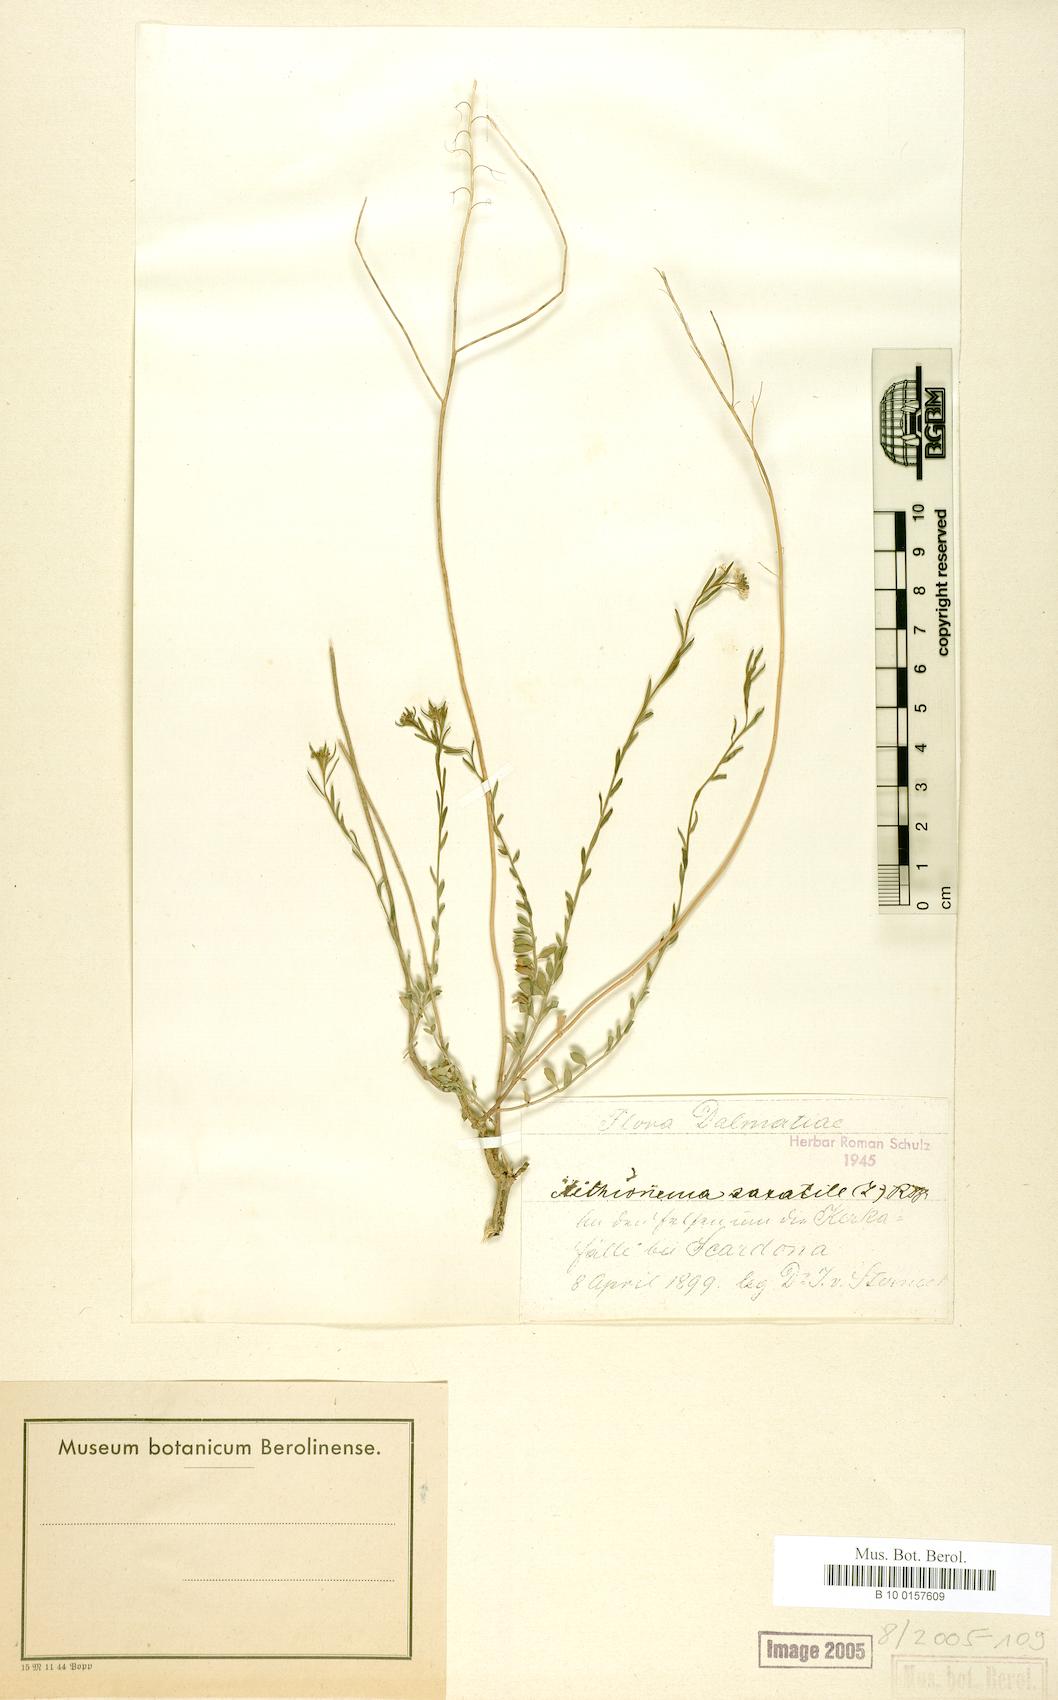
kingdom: Plantae
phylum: Tracheophyta
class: Magnoliopsida
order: Brassicales
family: Brassicaceae
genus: Aethionema
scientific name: Aethionema saxatile
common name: Burnt candytuft
